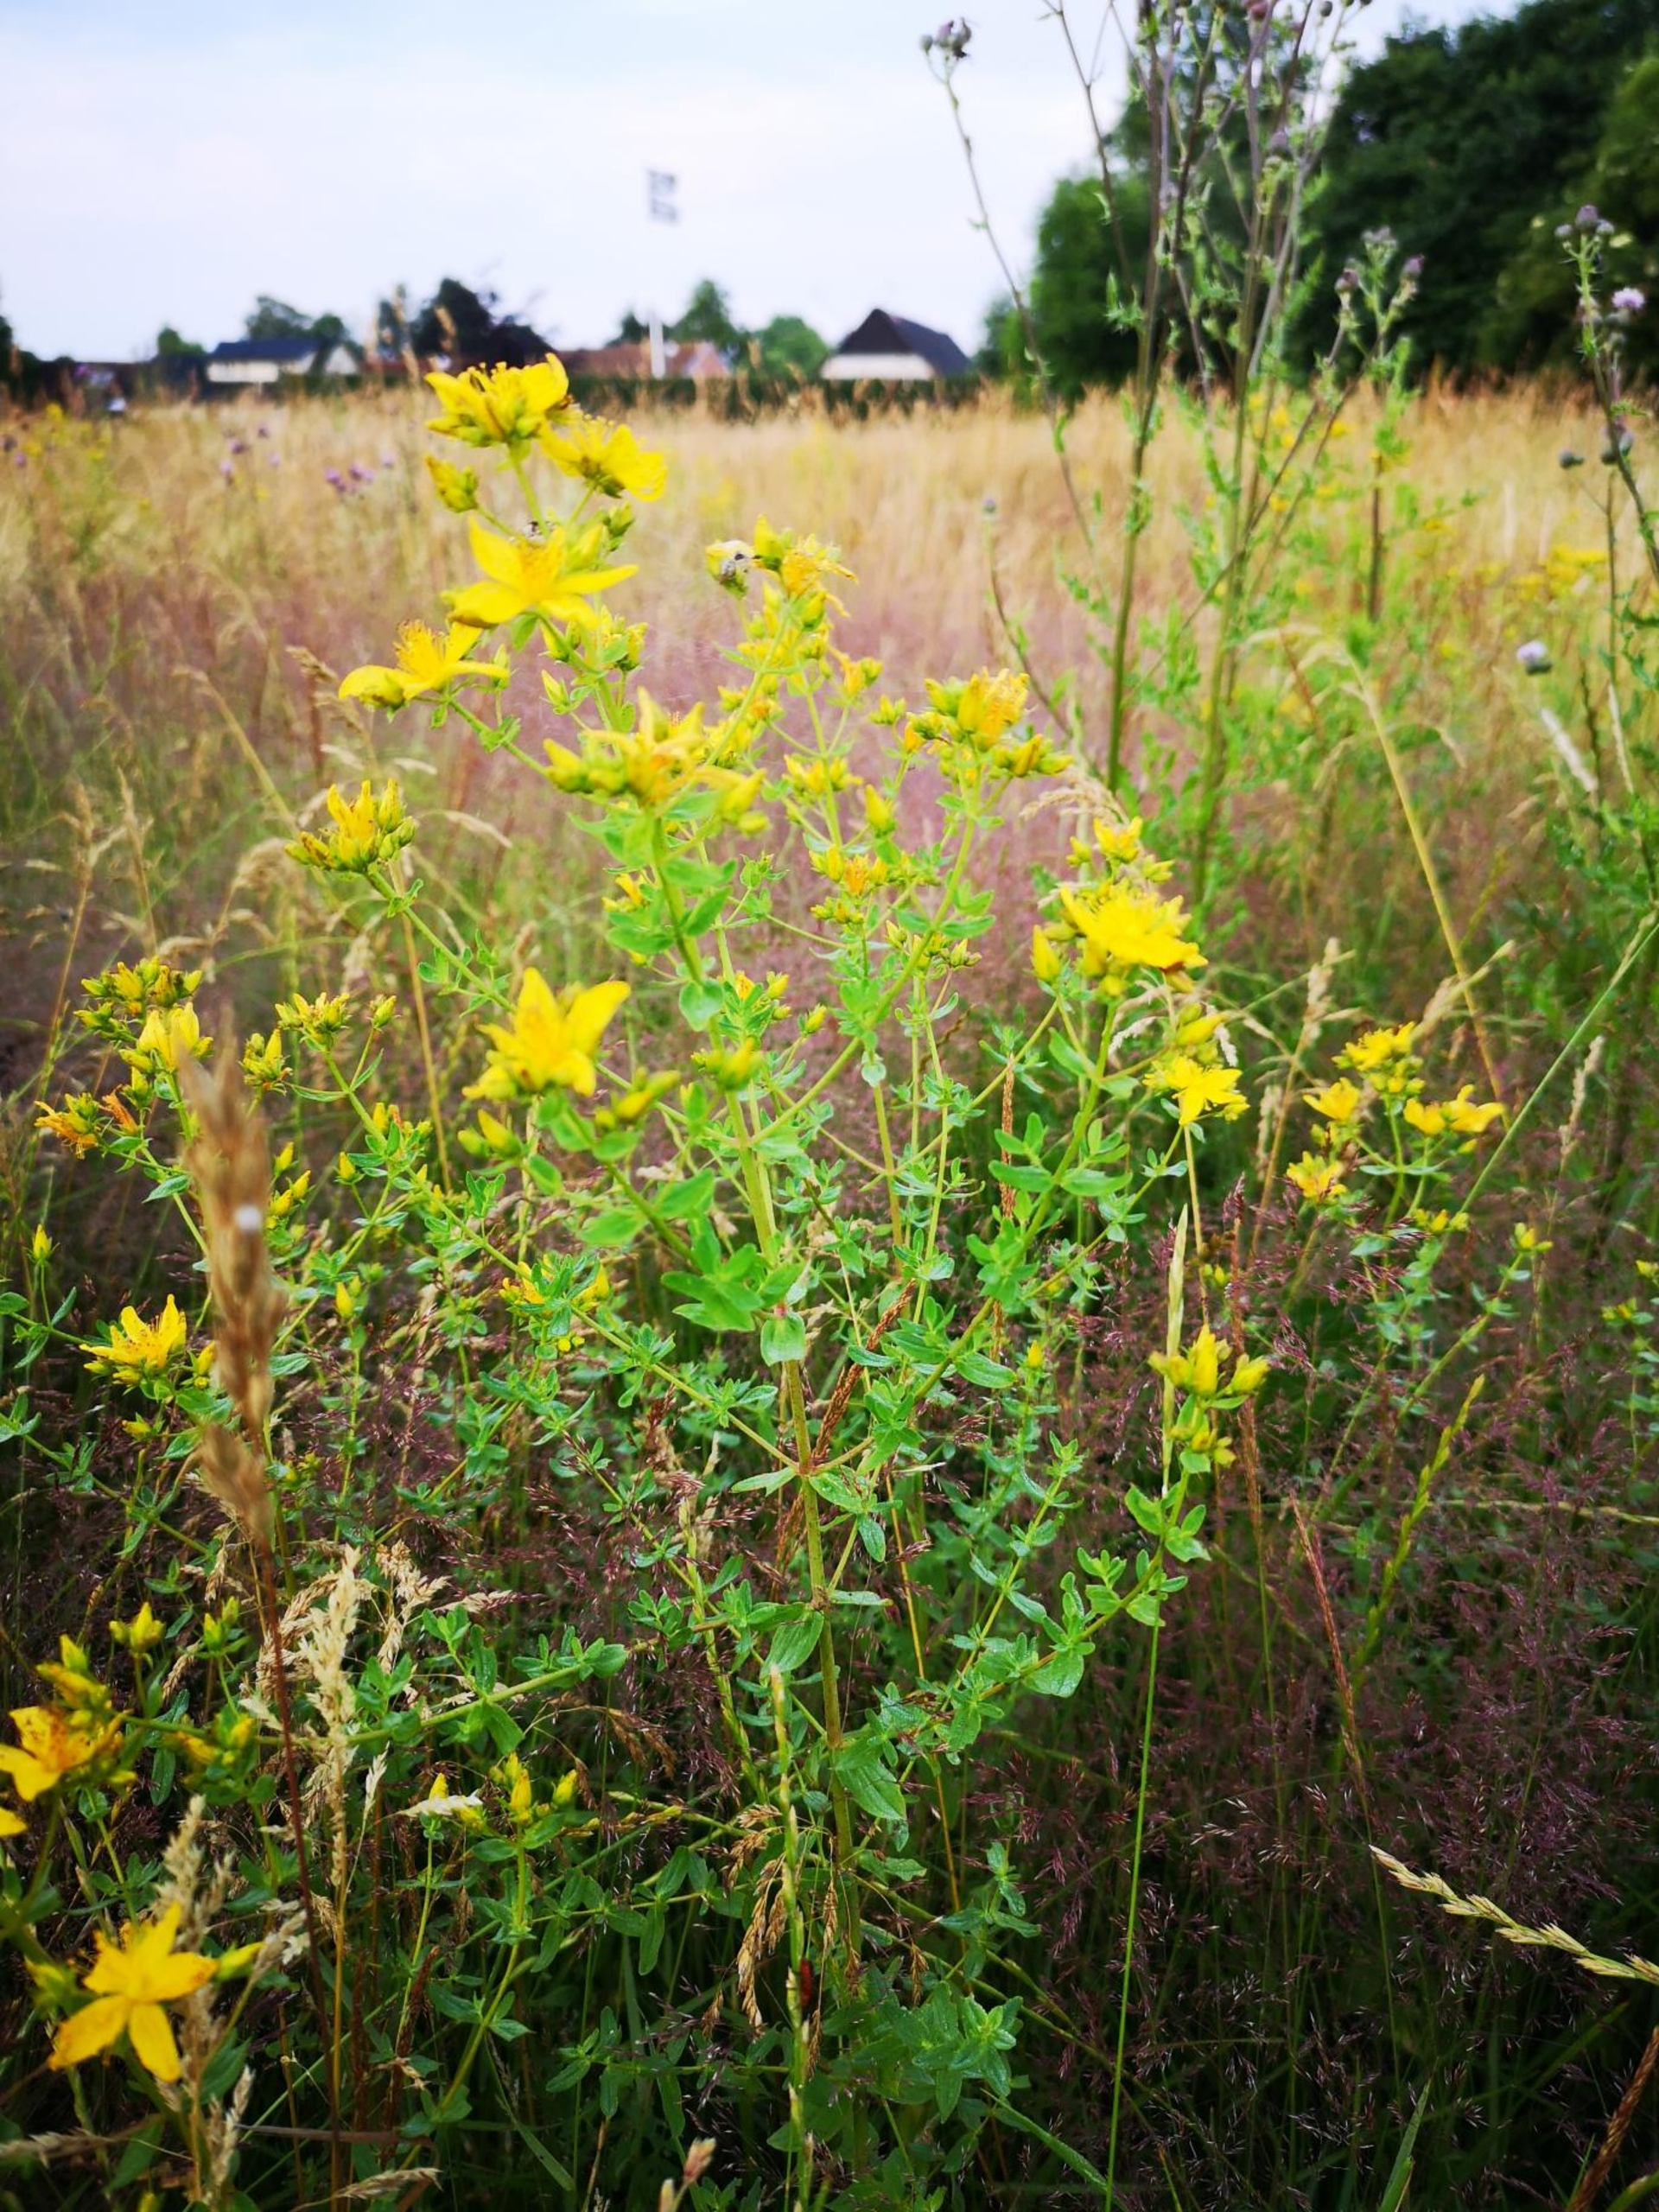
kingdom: Plantae
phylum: Tracheophyta
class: Magnoliopsida
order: Malpighiales
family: Hypericaceae
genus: Hypericum
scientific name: Hypericum perforatum
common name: Prikbladet perikon
